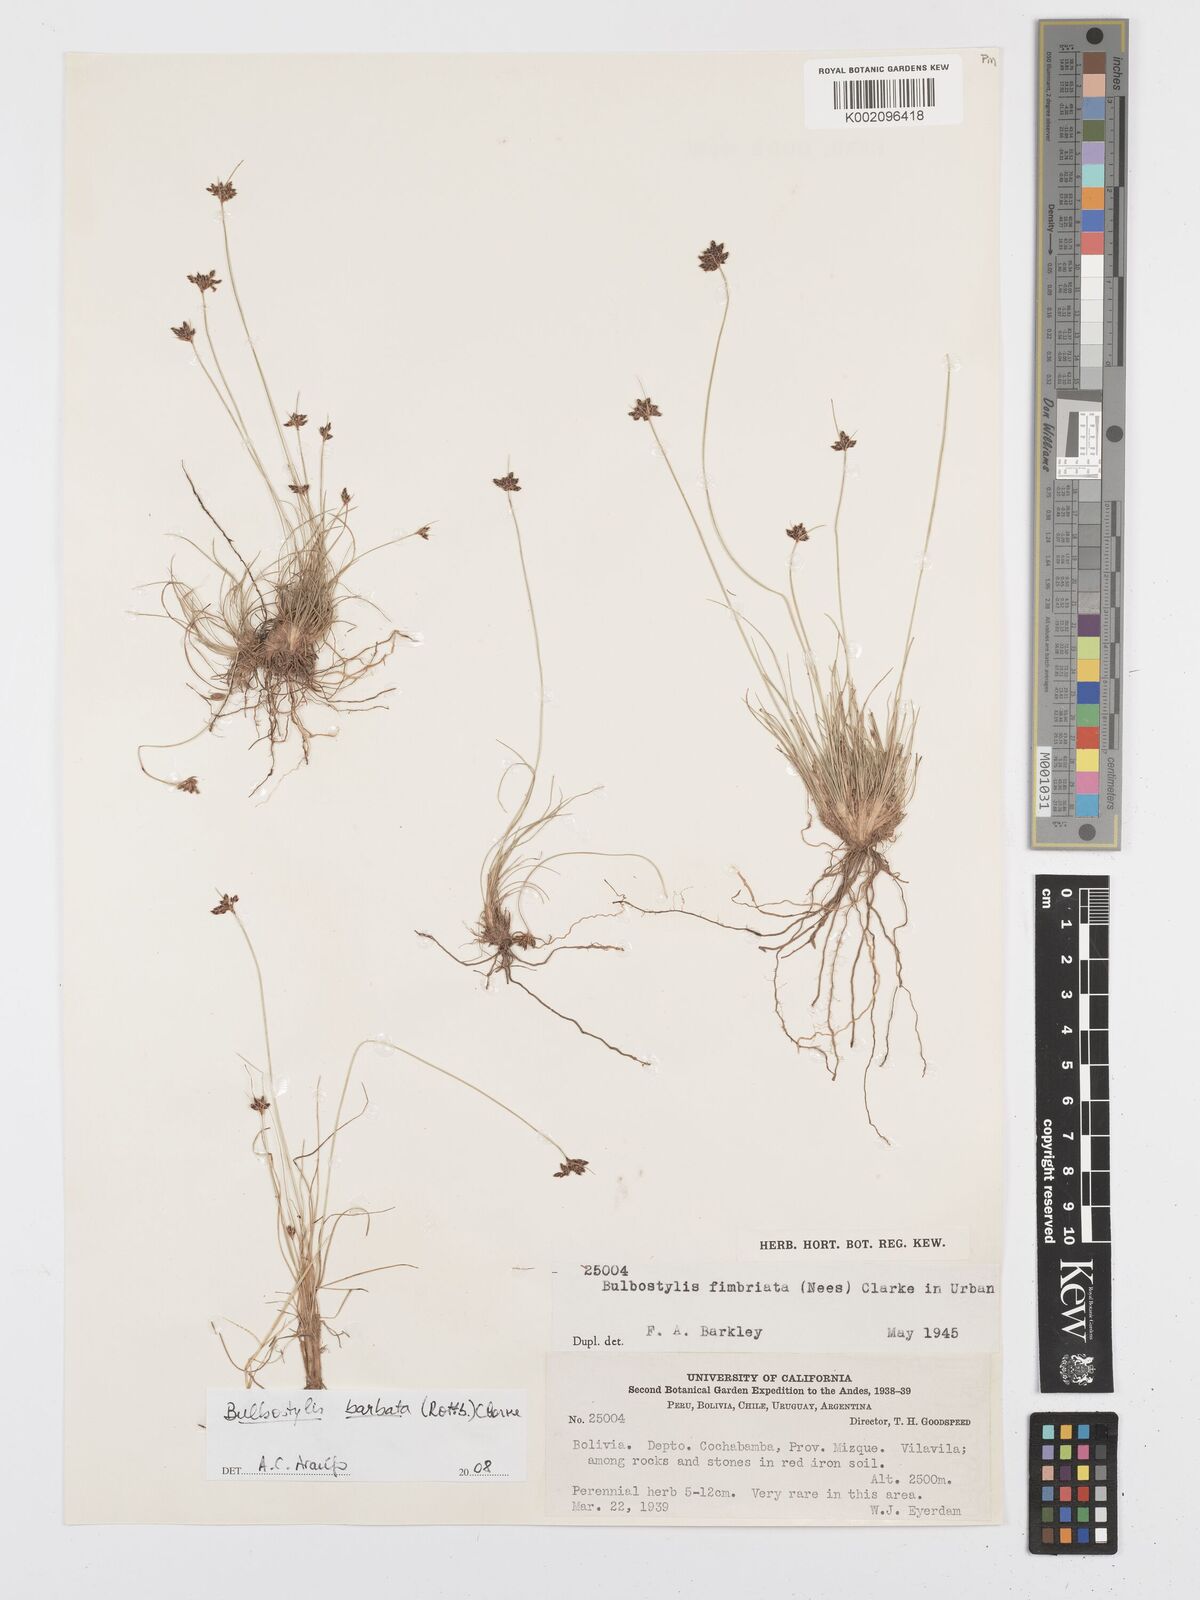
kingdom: Plantae
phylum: Tracheophyta
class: Liliopsida
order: Poales
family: Cyperaceae
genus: Bulbostylis
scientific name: Bulbostylis barbata
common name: Watergrass
